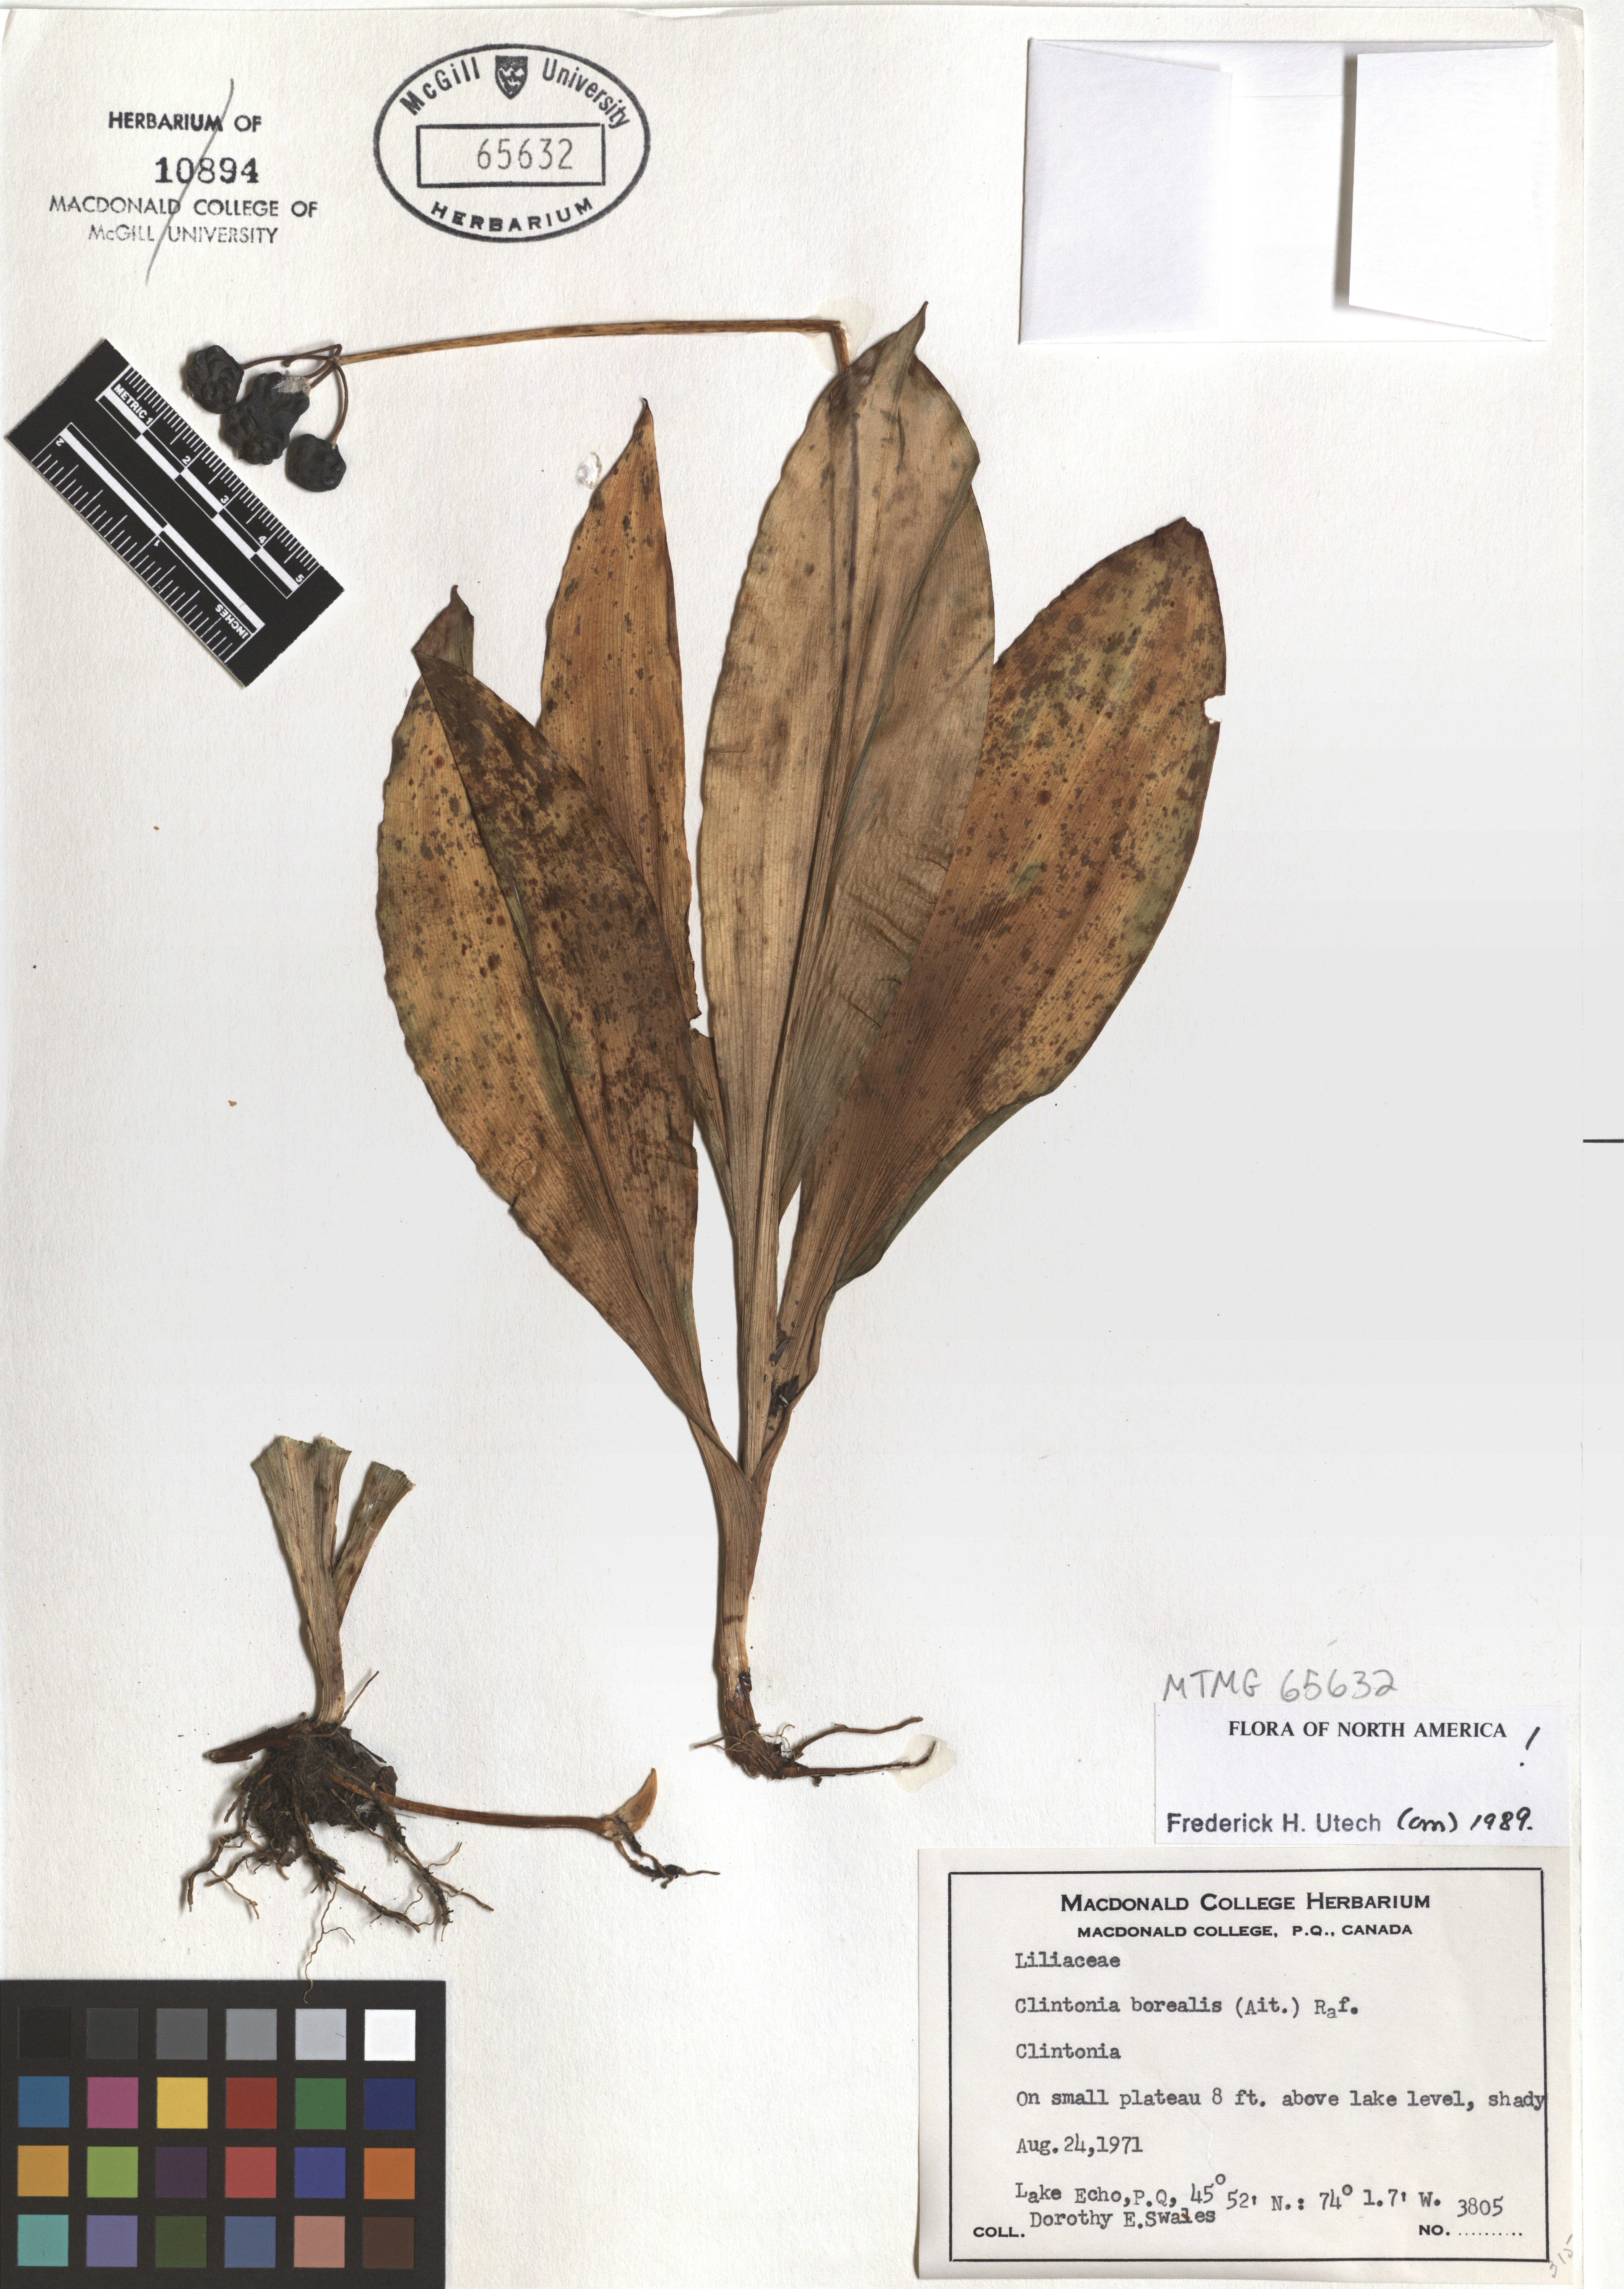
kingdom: Plantae
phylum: Tracheophyta
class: Liliopsida
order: Liliales
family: Liliaceae
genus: Clintonia
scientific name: Clintonia borealis
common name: Yellow clintonia
